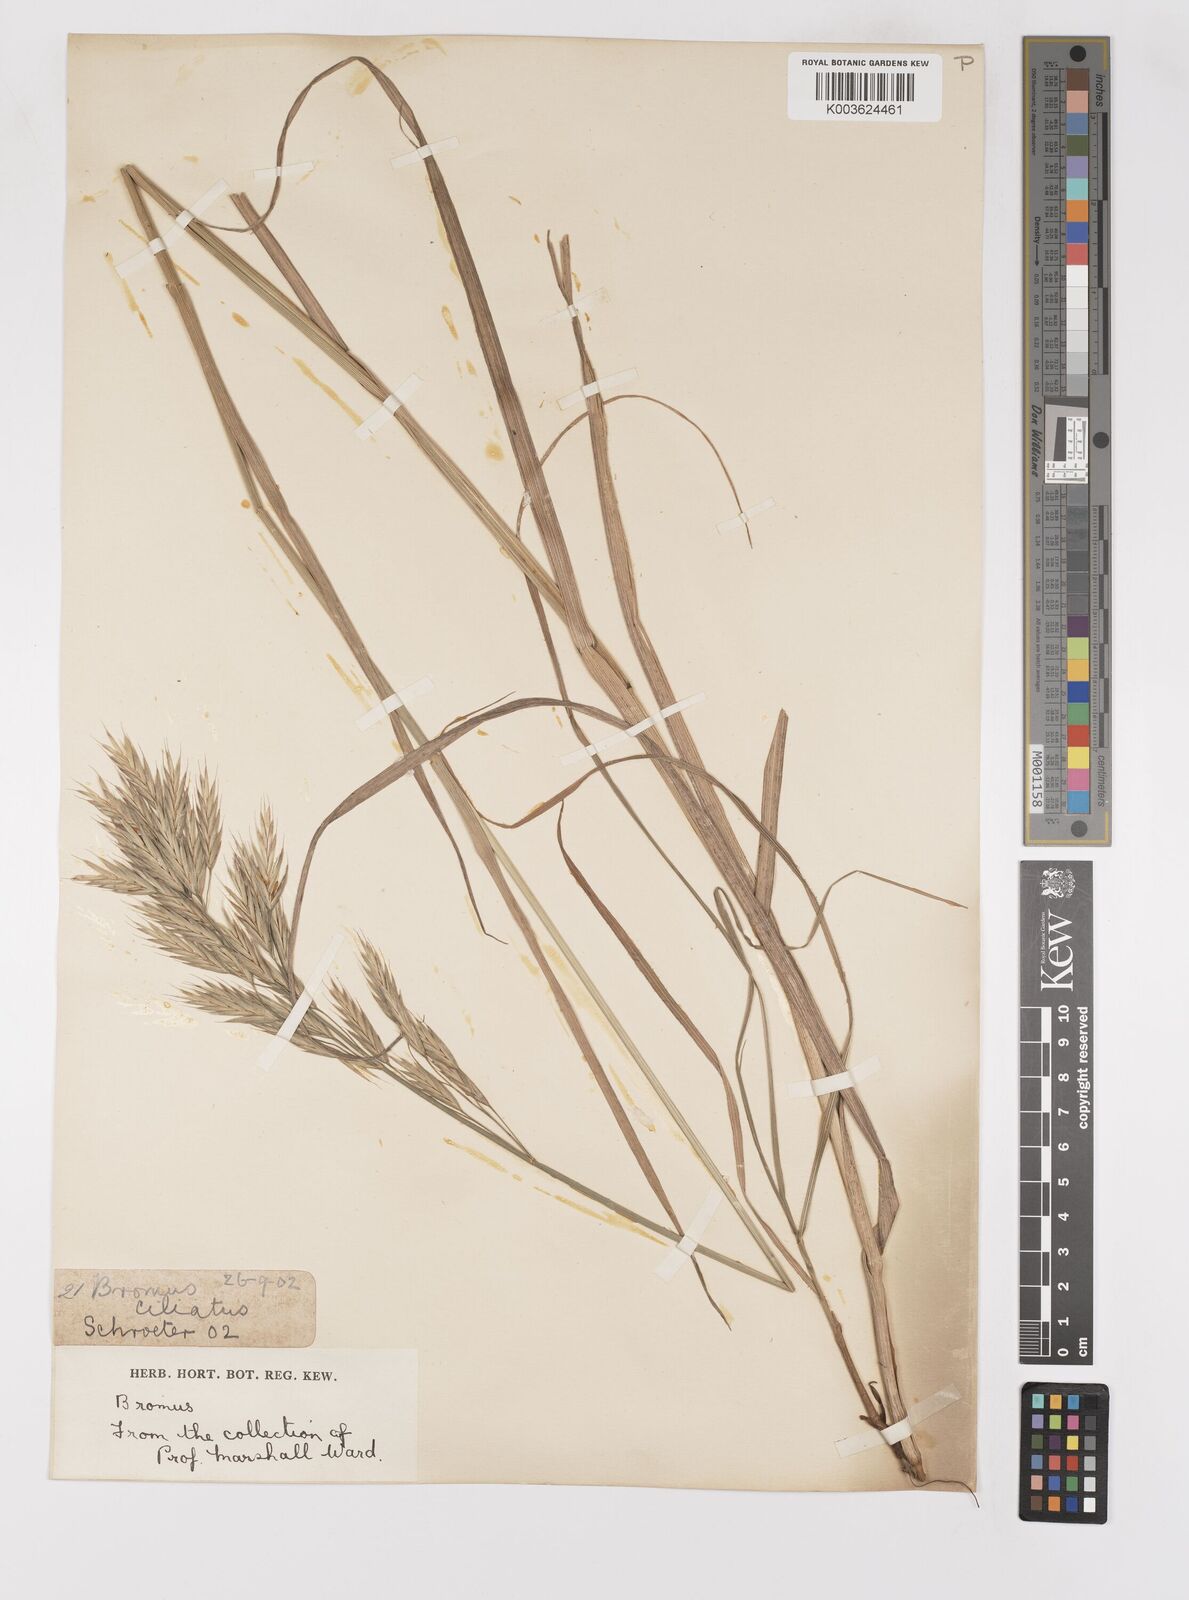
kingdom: Plantae
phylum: Tracheophyta
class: Liliopsida
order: Poales
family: Poaceae
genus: Bromus
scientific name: Bromus
